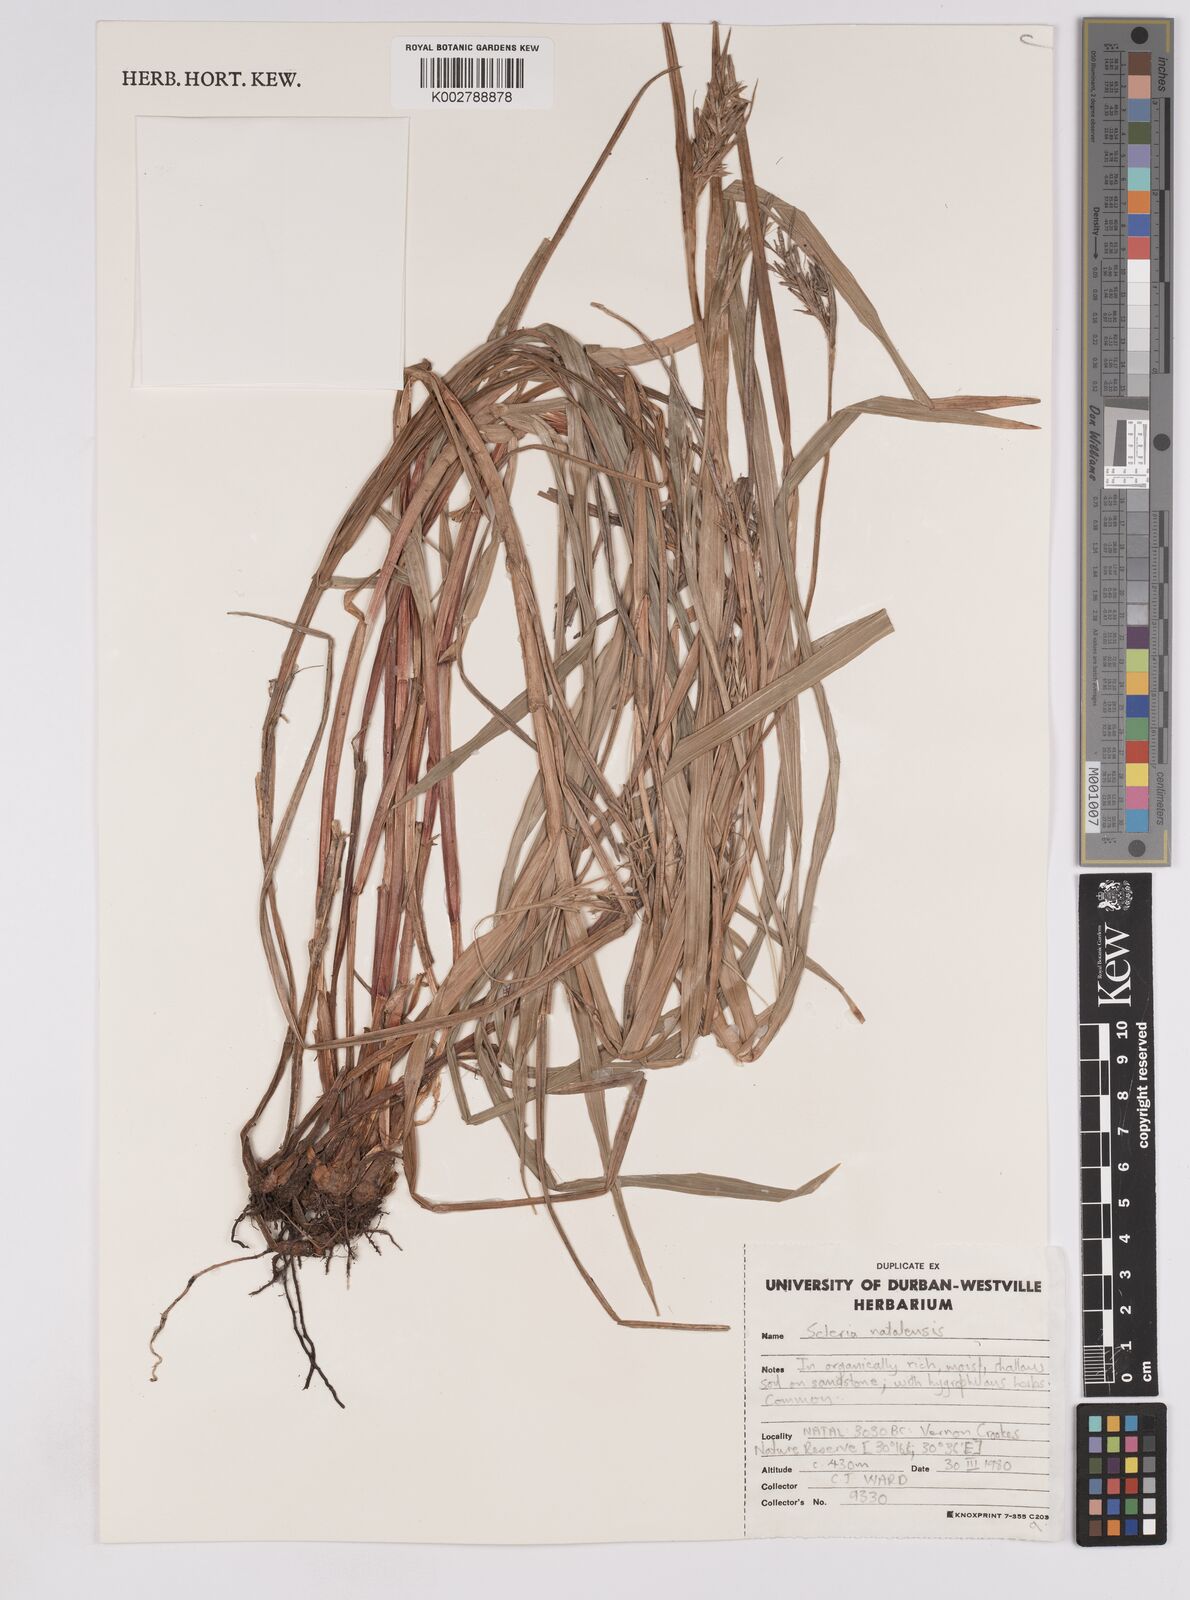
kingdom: Plantae
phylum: Tracheophyta
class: Liliopsida
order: Poales
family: Cyperaceae
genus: Scleria
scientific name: Scleria natalensis
